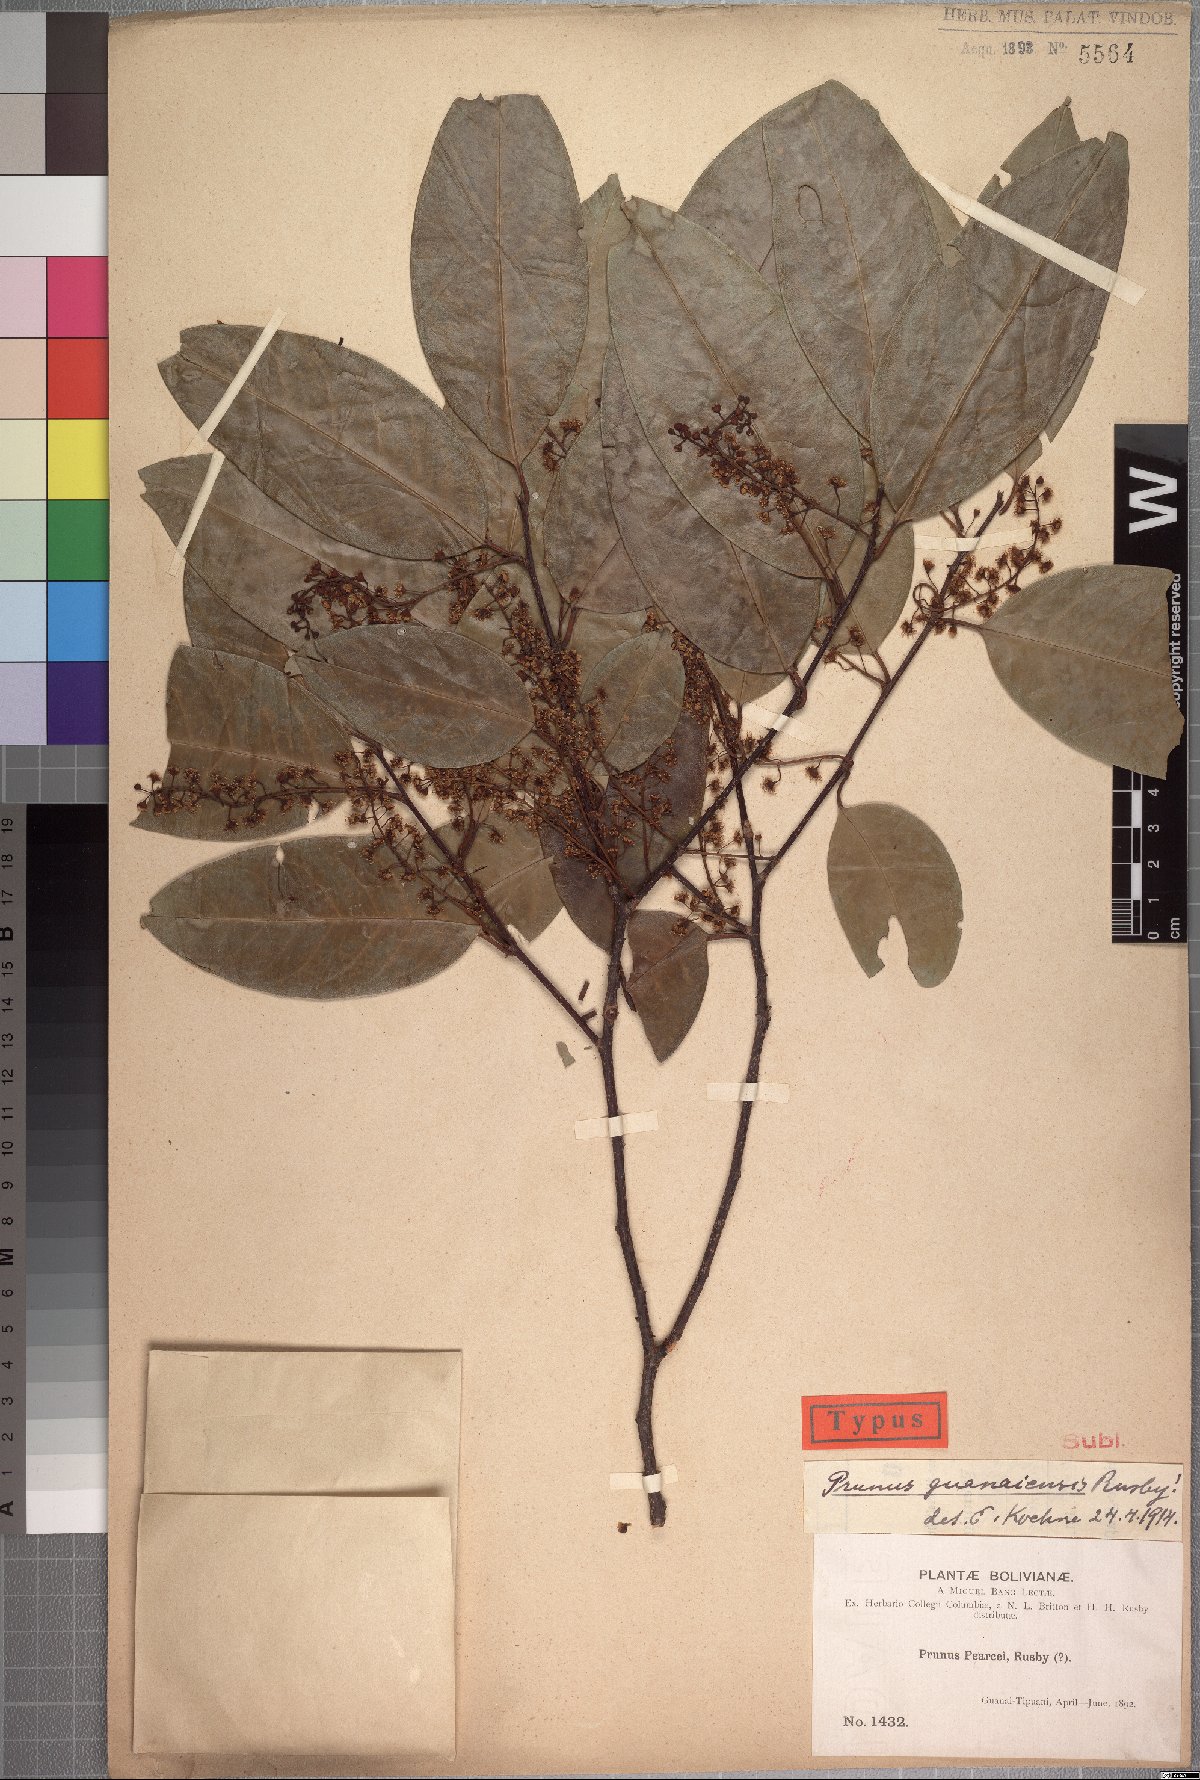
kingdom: Plantae
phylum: Tracheophyta
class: Magnoliopsida
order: Rosales
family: Rosaceae
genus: Prunus
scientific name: Prunus guanaiensis
